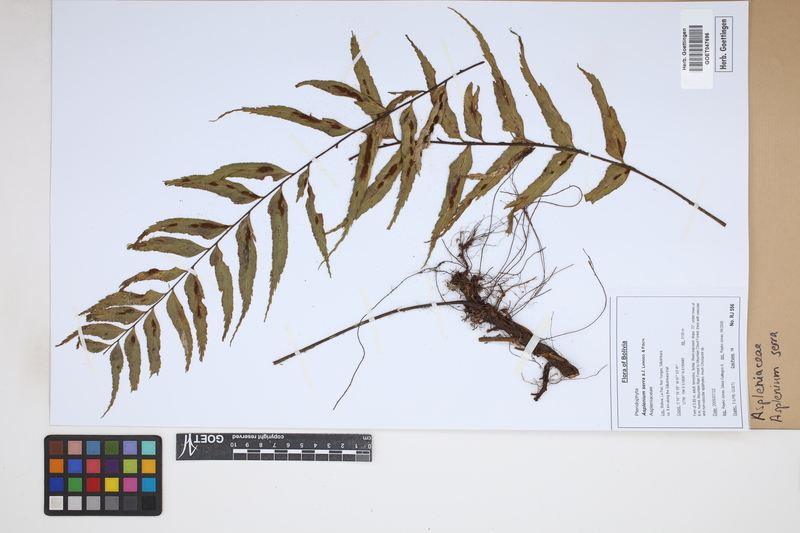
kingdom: Plantae
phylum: Tracheophyta
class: Polypodiopsida
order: Polypodiales
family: Aspleniaceae
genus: Asplenium
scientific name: Asplenium serra
